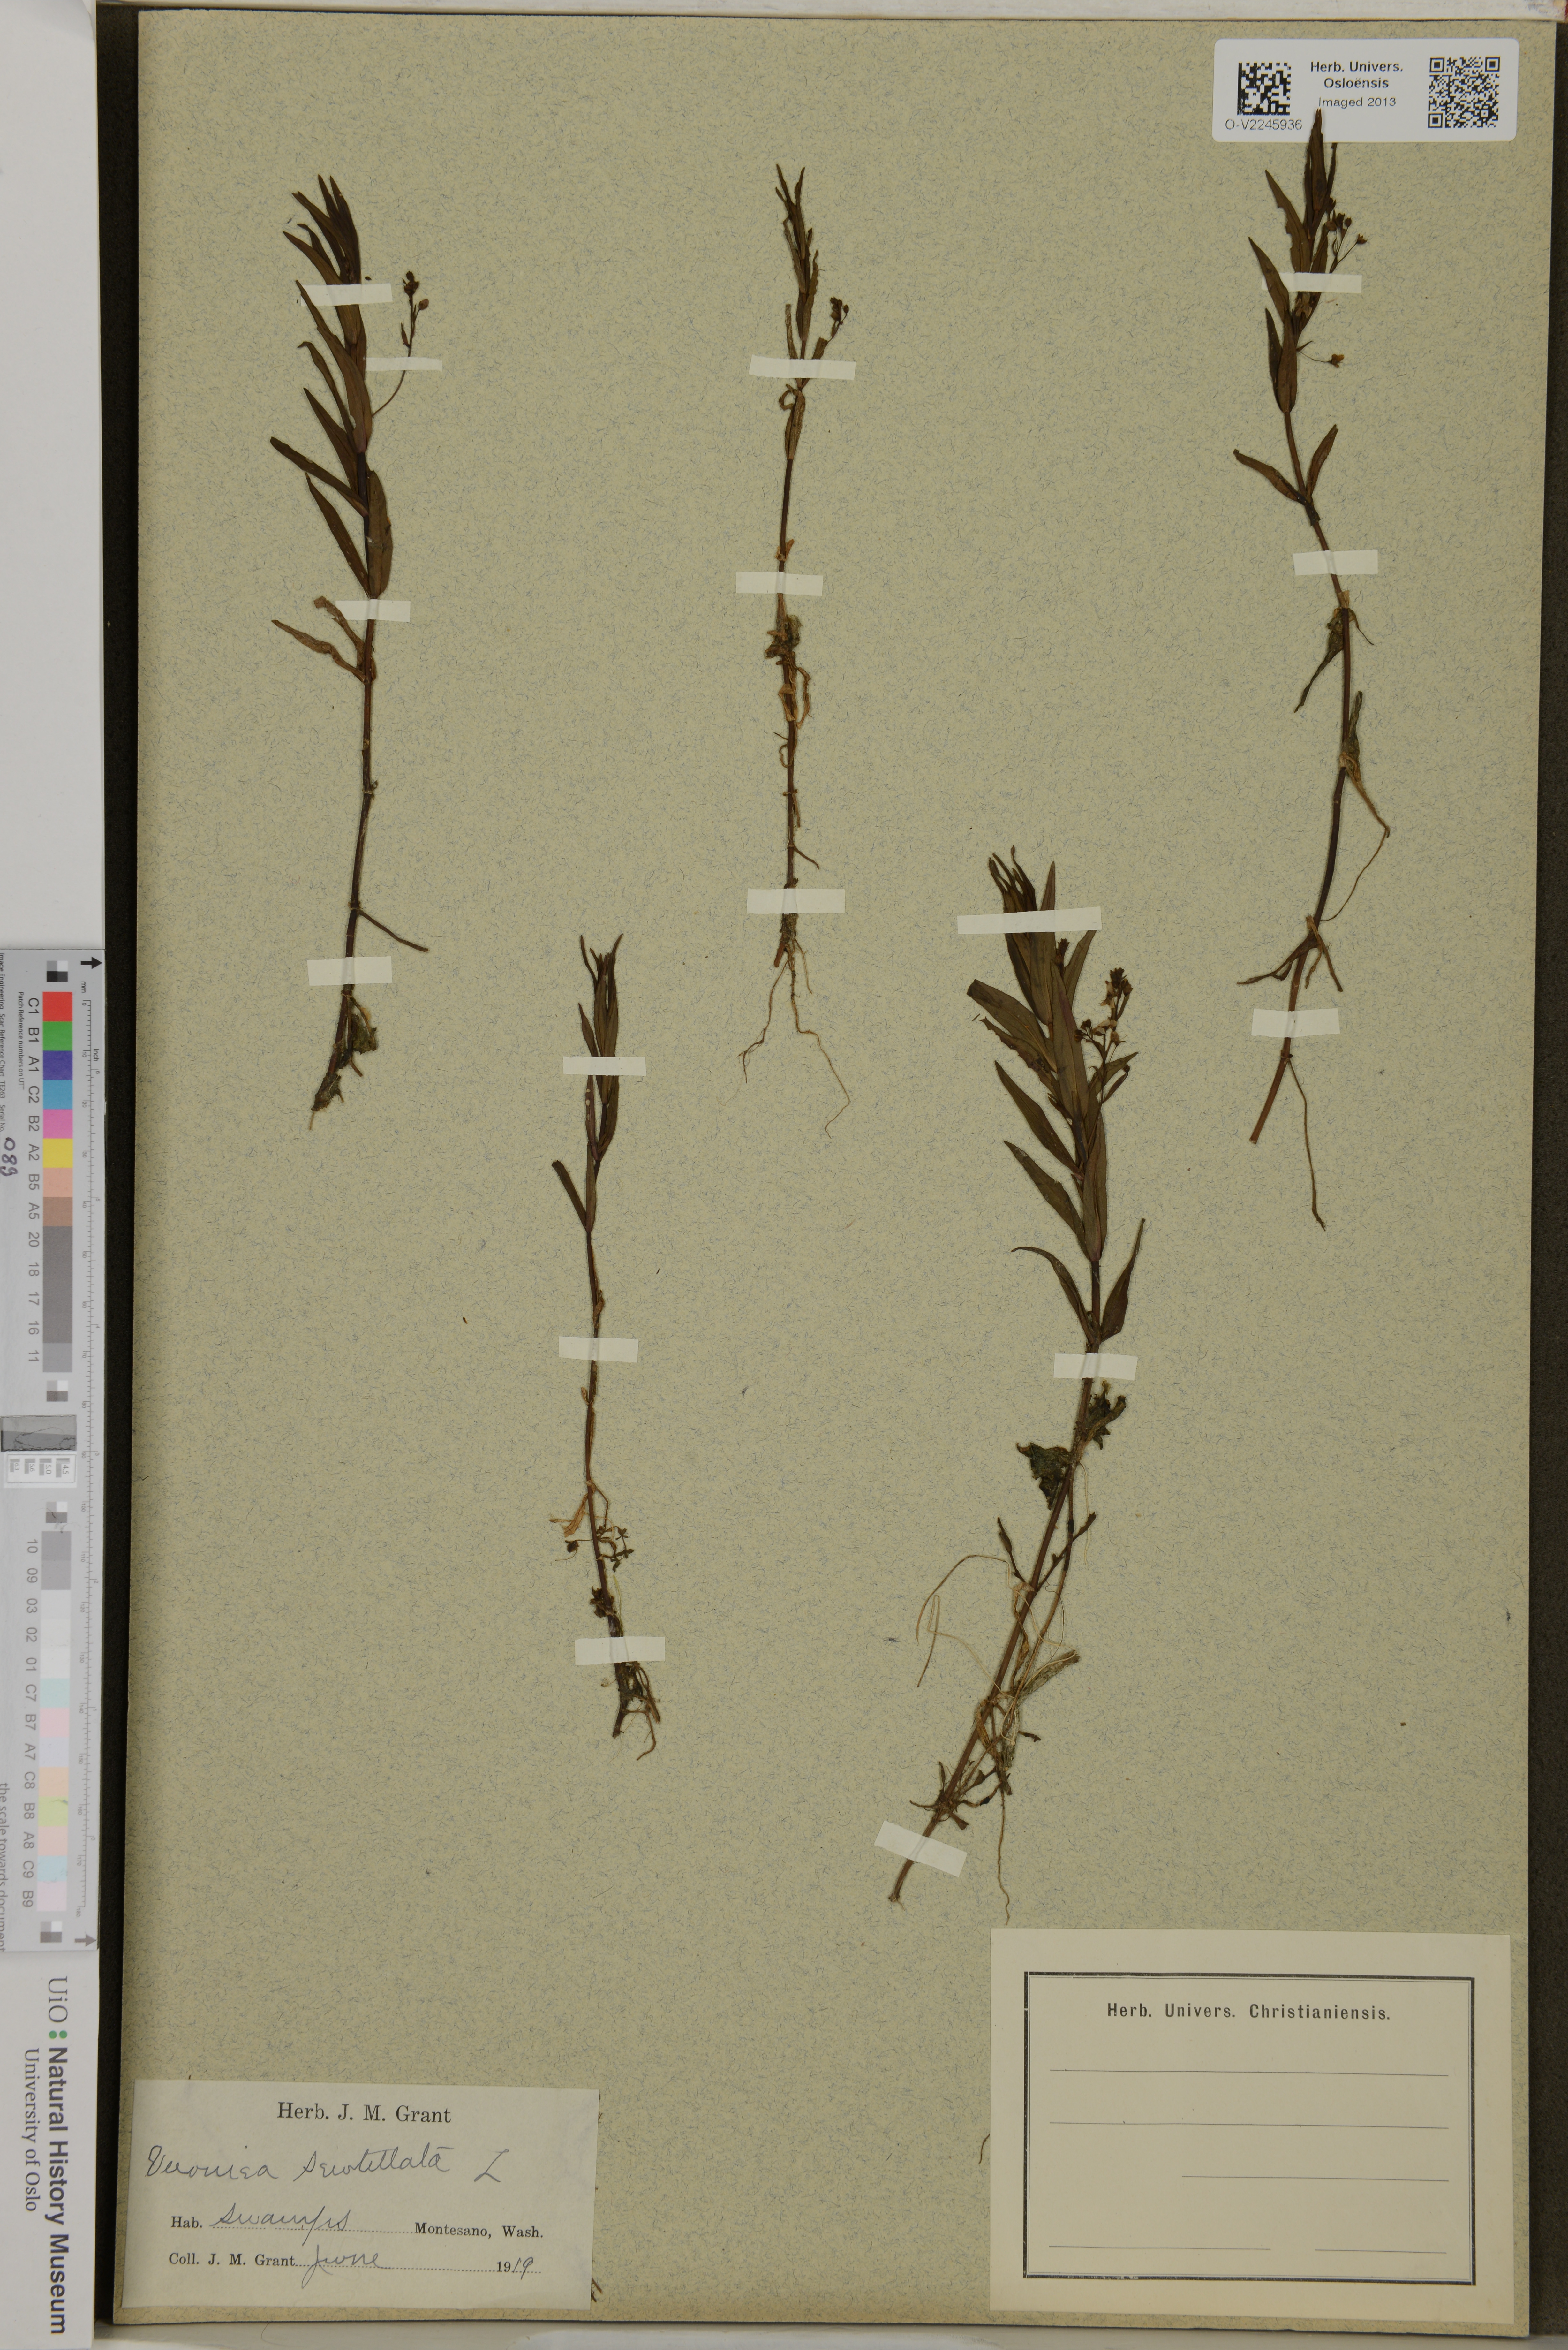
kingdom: Plantae
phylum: Tracheophyta
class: Magnoliopsida
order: Lamiales
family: Plantaginaceae
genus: Veronica
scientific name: Veronica scutellata
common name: Marsh speedwell
